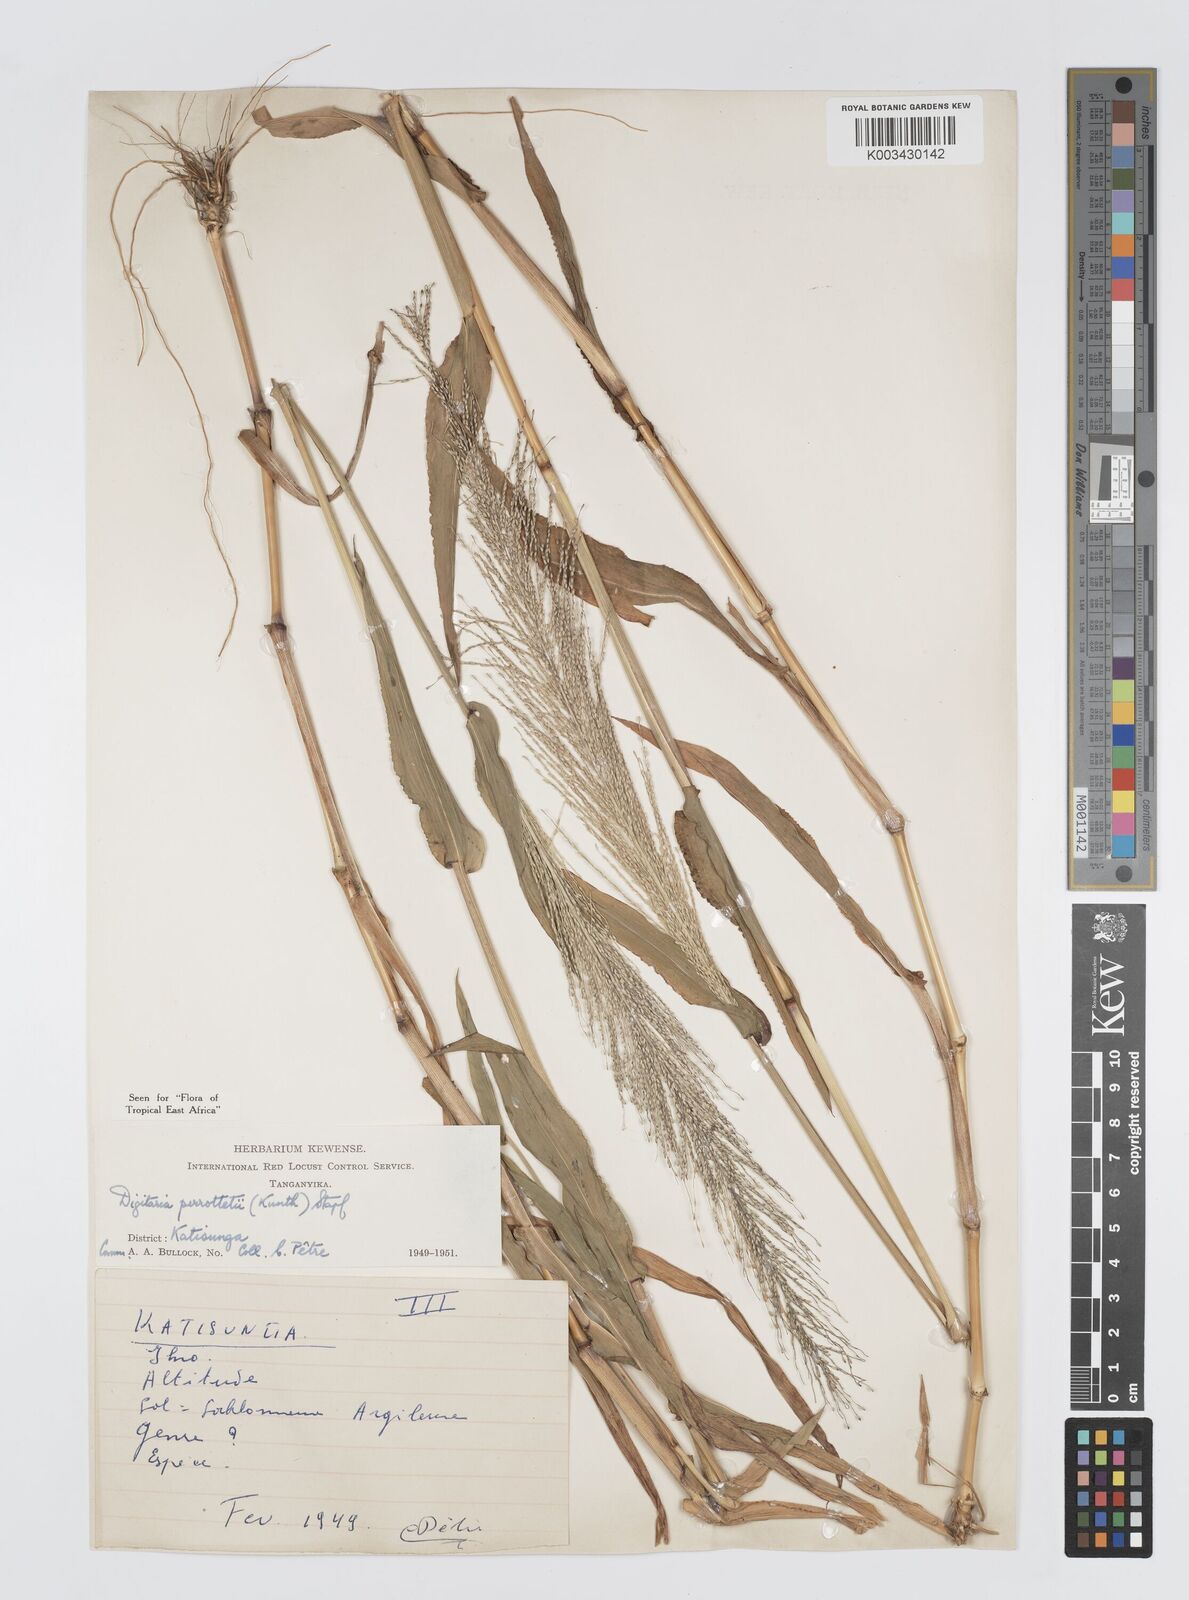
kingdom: Plantae
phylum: Tracheophyta
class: Liliopsida
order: Poales
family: Poaceae
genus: Digitaria
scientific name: Digitaria perrottetii
